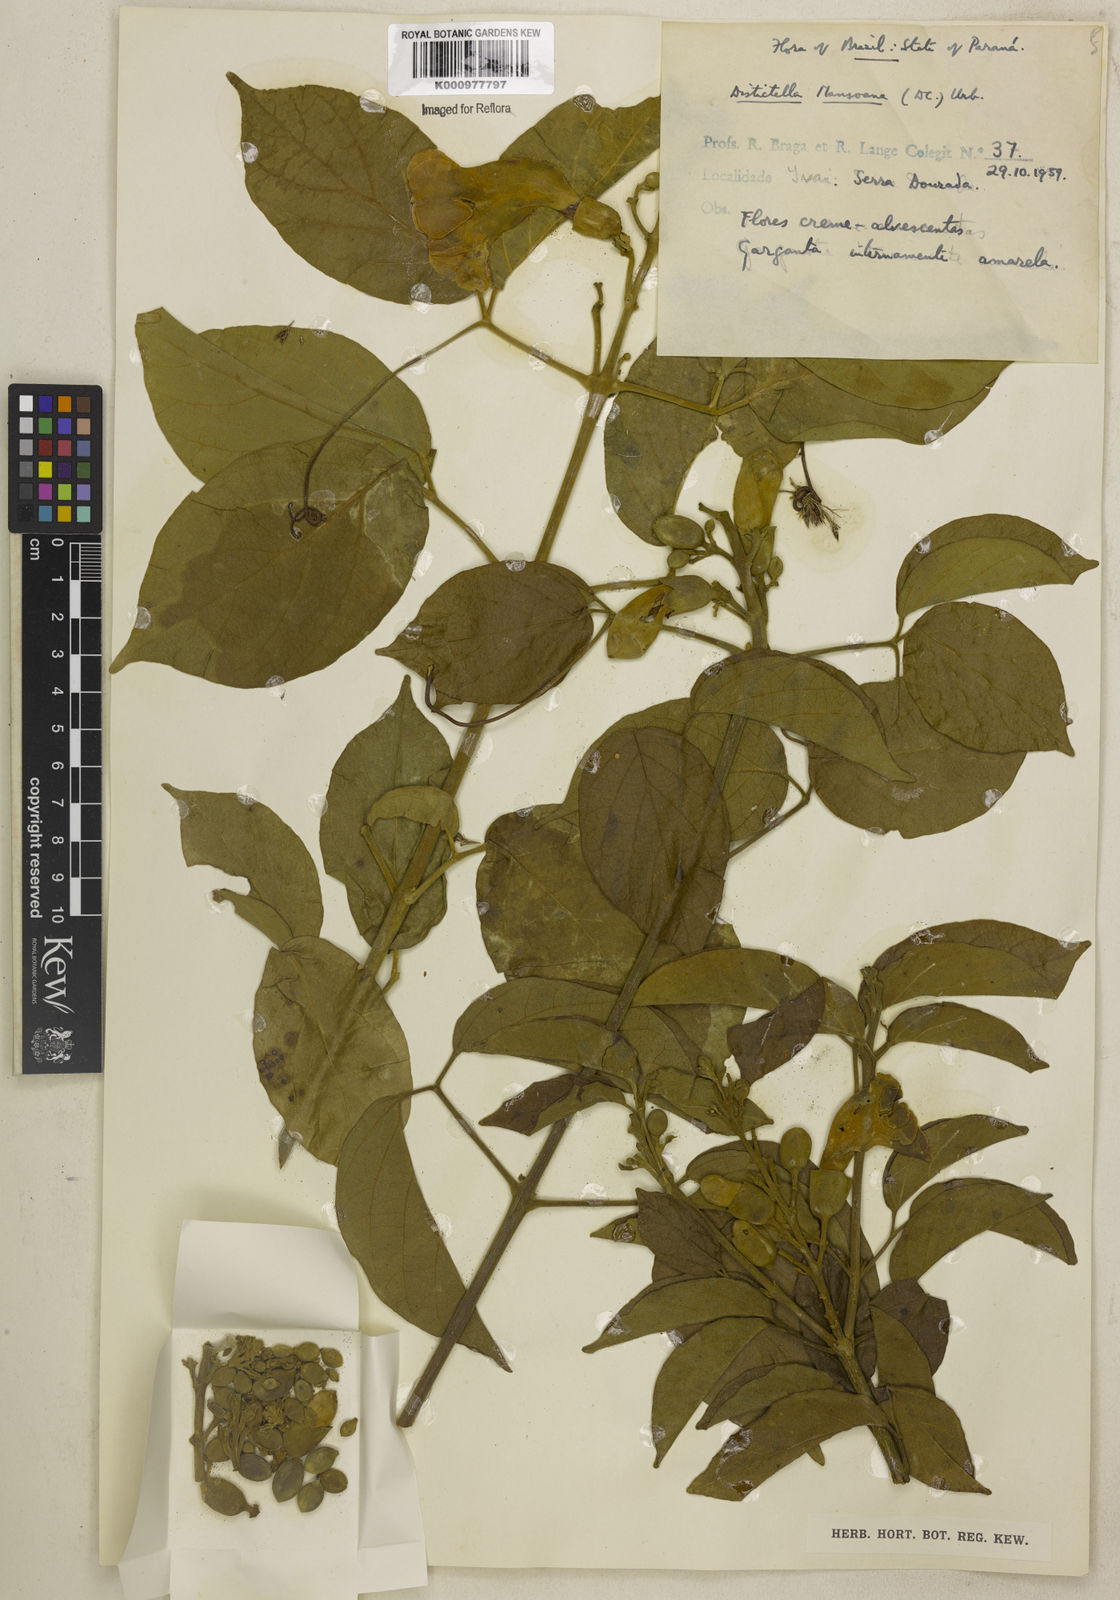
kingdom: Plantae
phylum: Tracheophyta
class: Magnoliopsida
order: Lamiales
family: Bignoniaceae
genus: Amphilophium
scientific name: Amphilophium mansoanum
